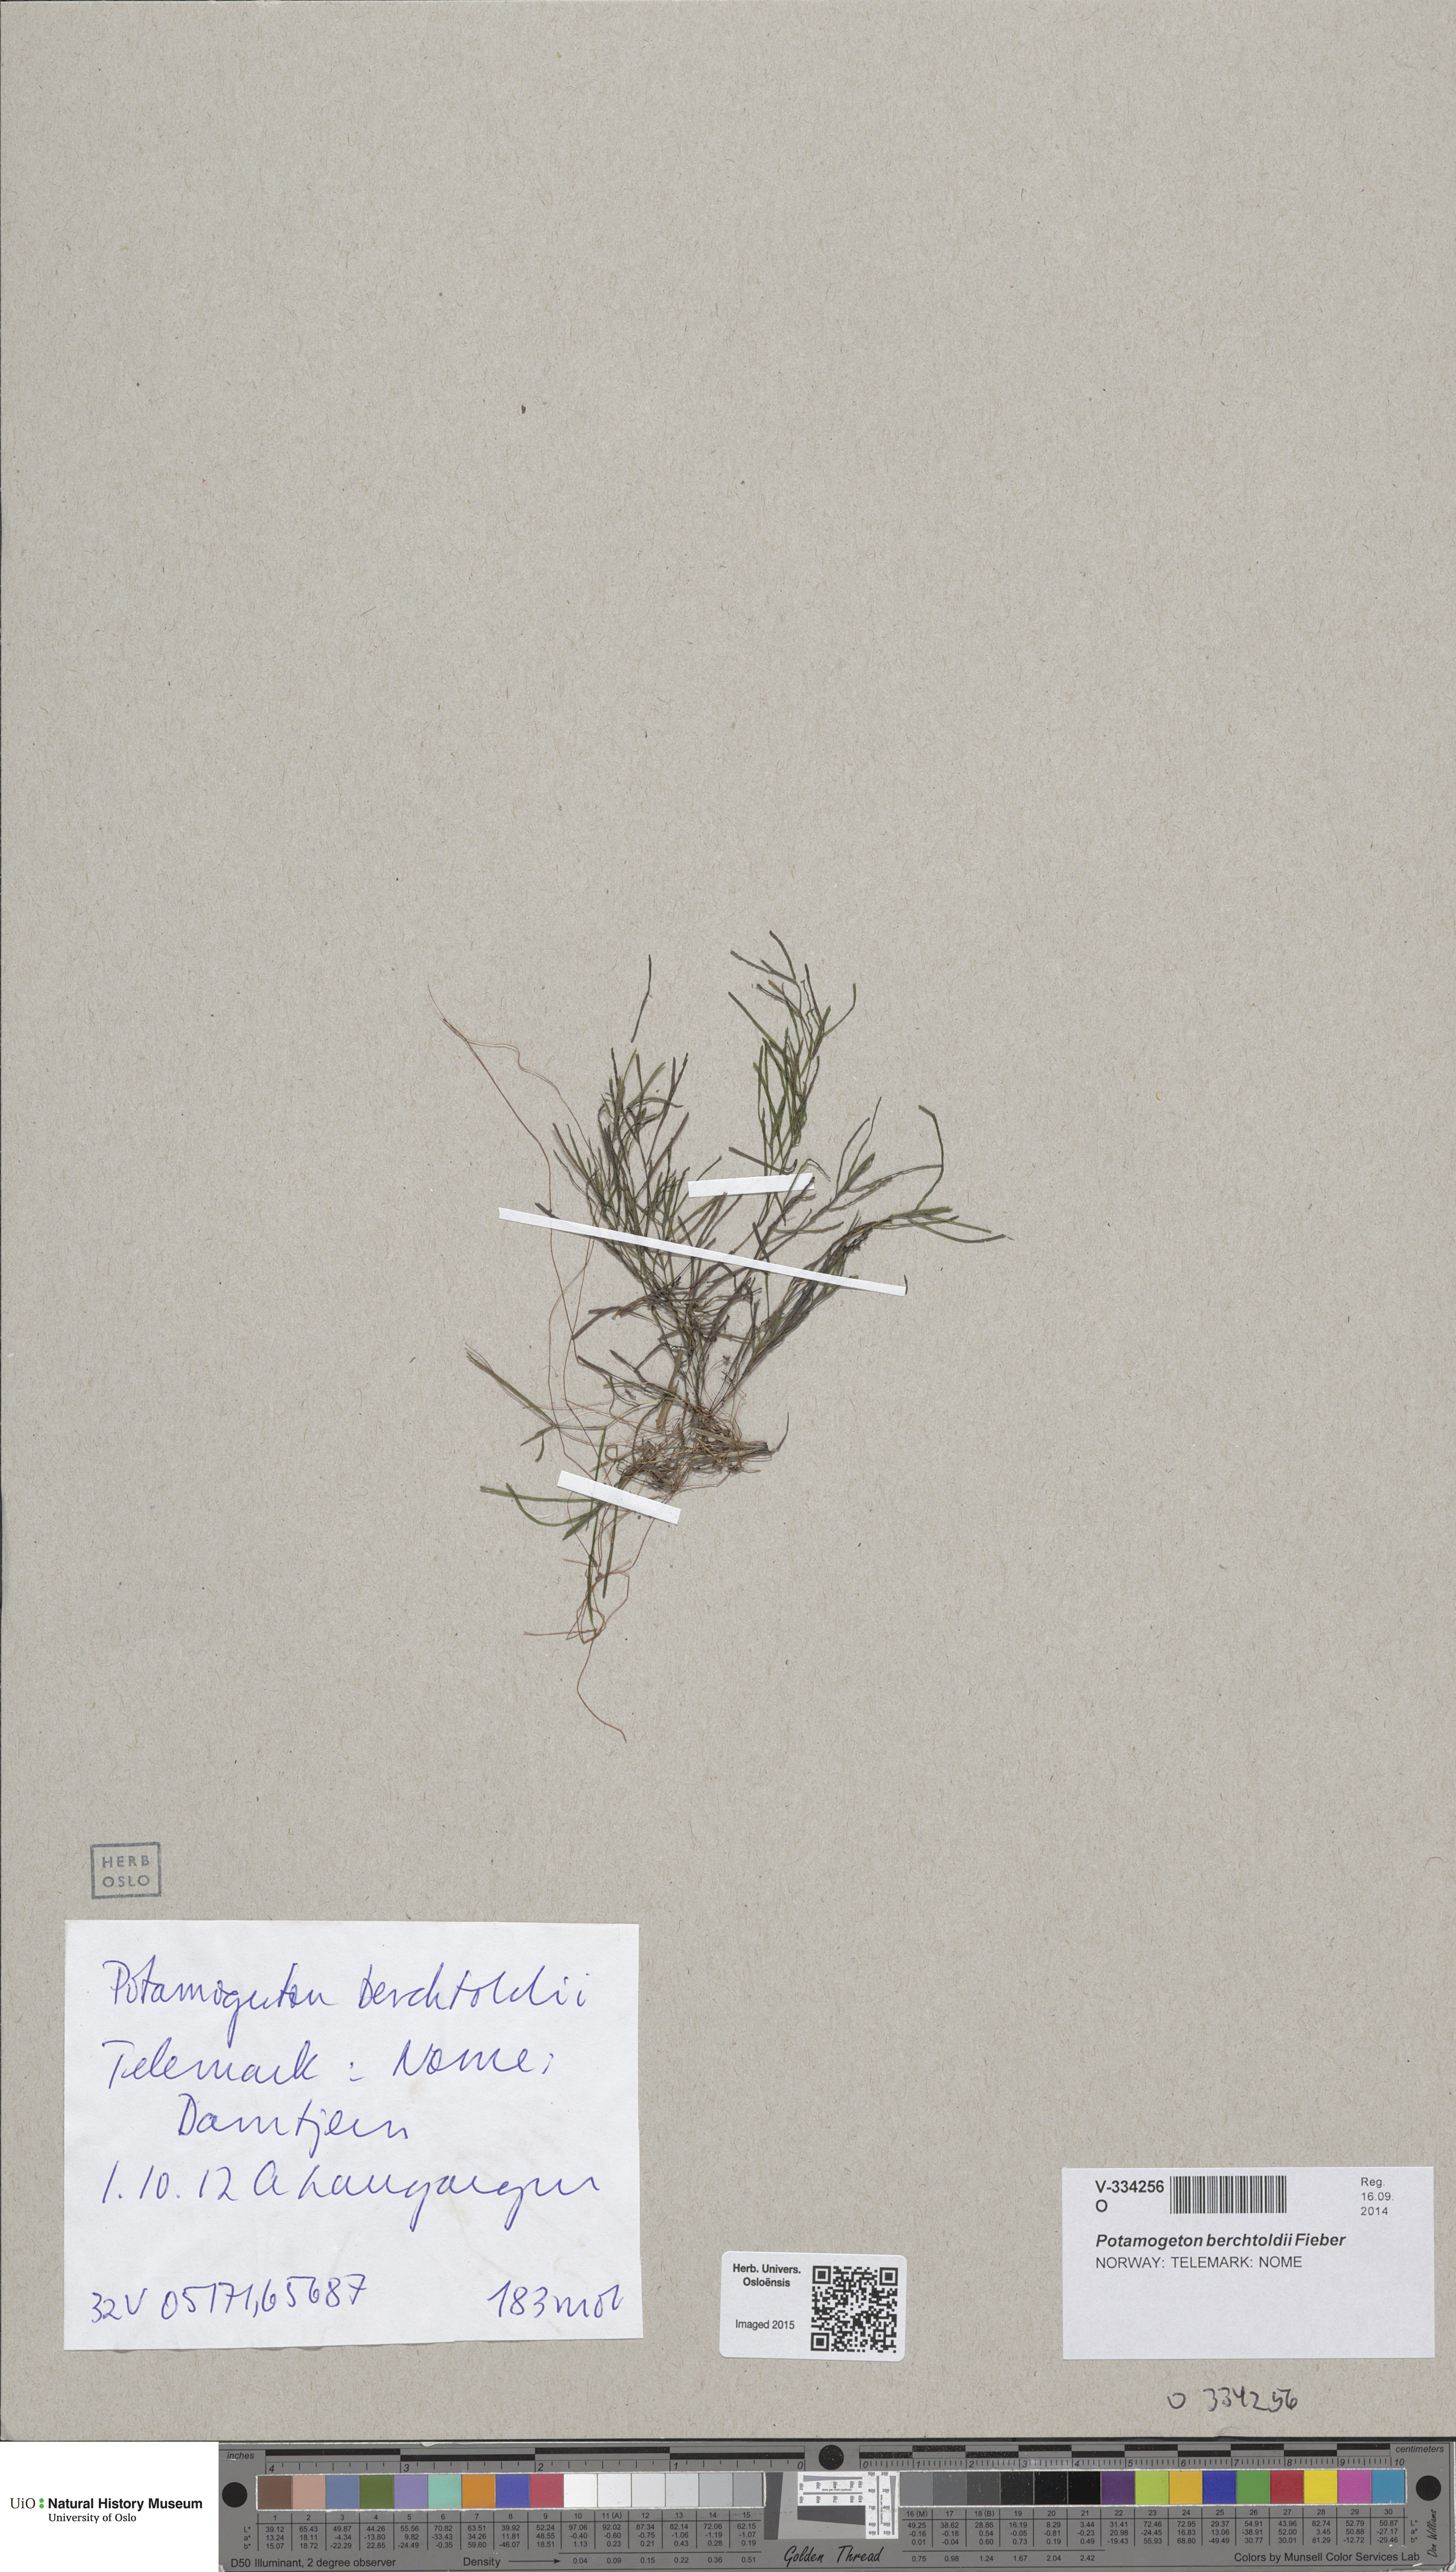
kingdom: Plantae
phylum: Tracheophyta
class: Liliopsida
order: Alismatales
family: Potamogetonaceae
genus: Potamogeton
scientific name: Potamogeton berchtoldii
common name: Small pondweed
